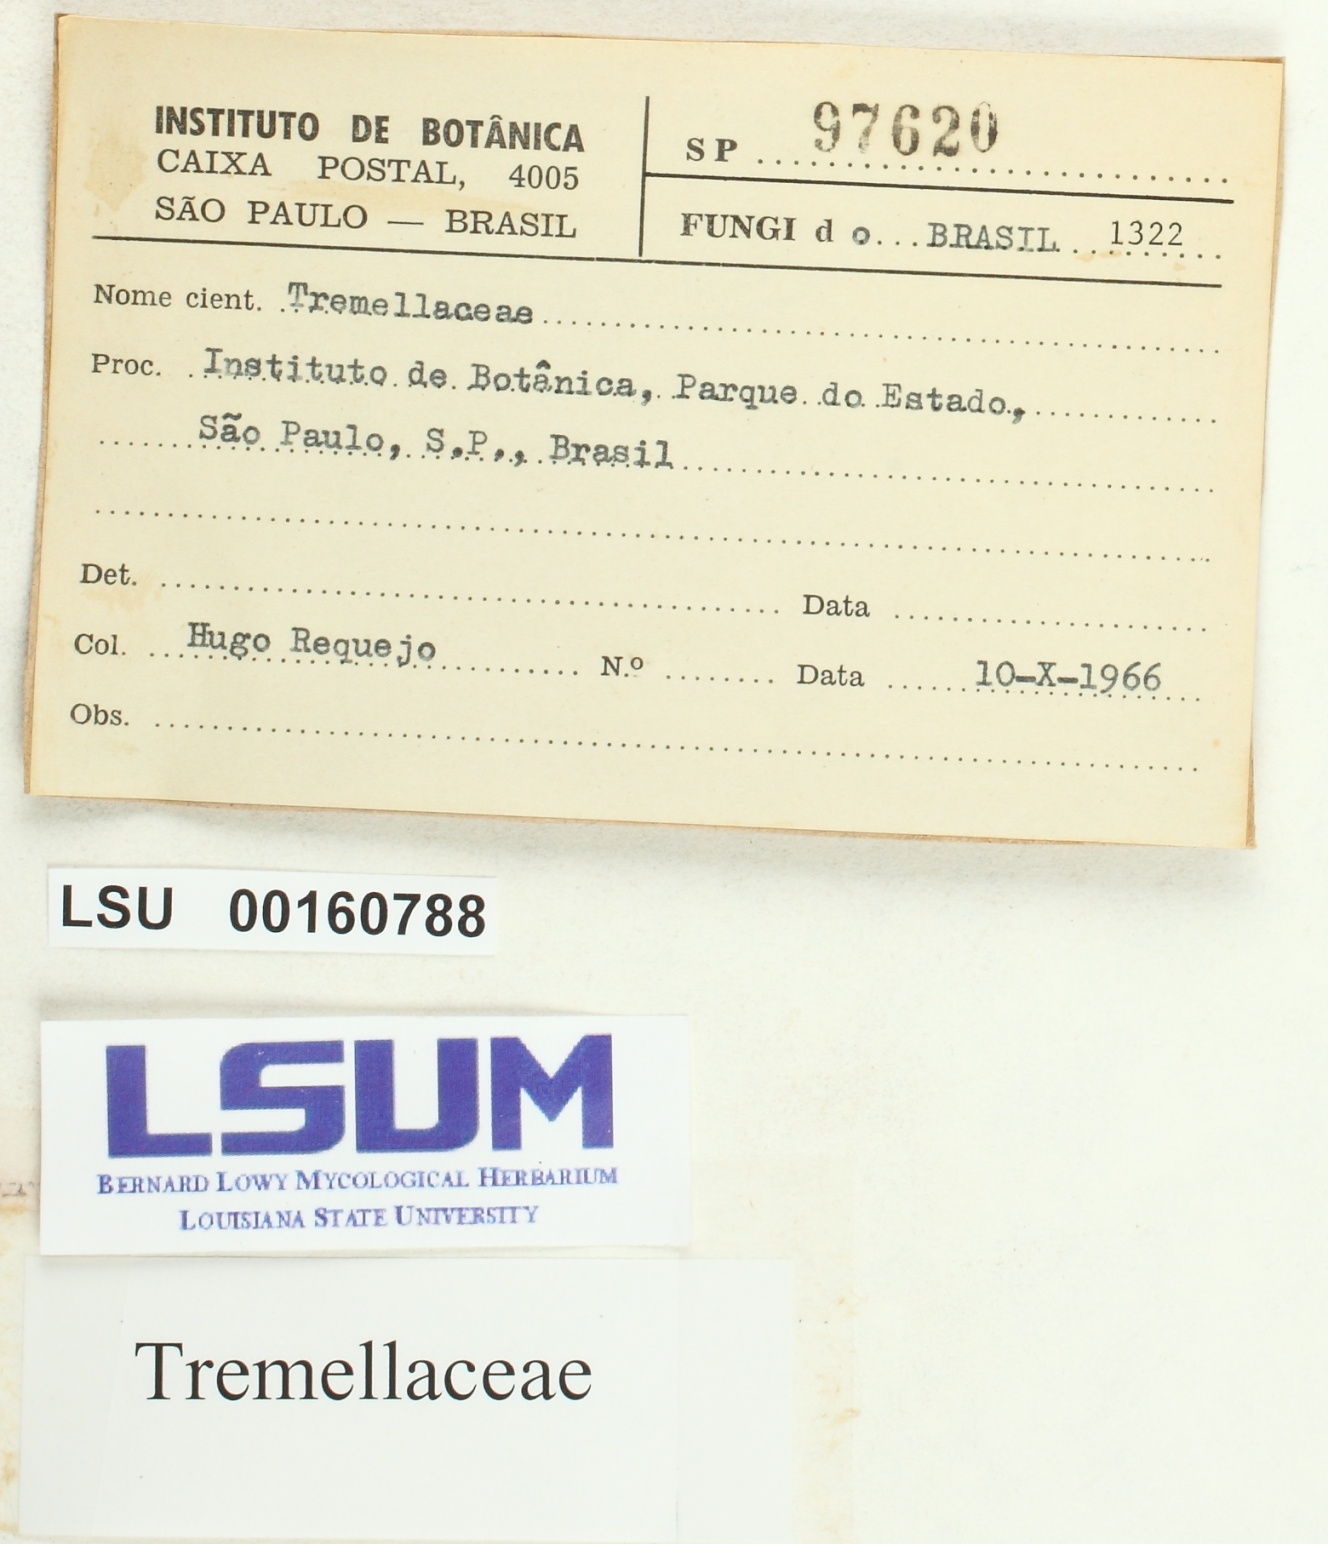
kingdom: Fungi
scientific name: Fungi
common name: Fungi
